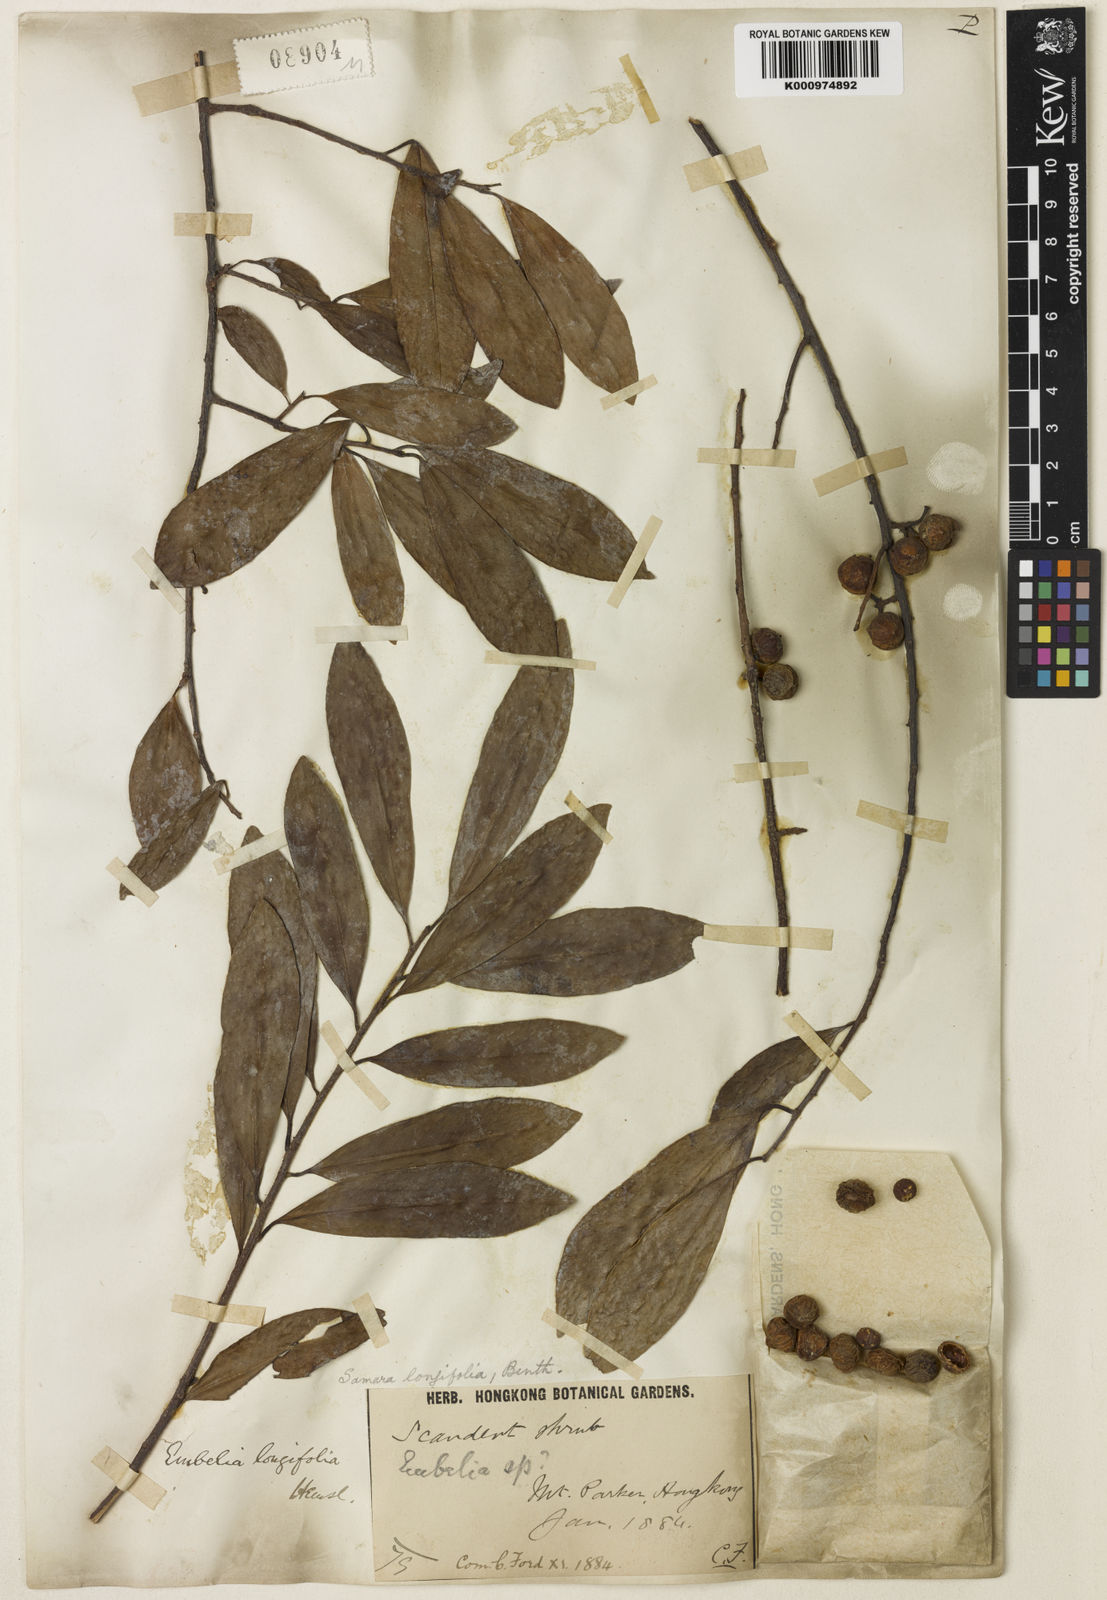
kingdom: Plantae
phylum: Tracheophyta
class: Magnoliopsida
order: Ericales
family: Primulaceae
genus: Embelia
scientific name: Embelia longifolia
